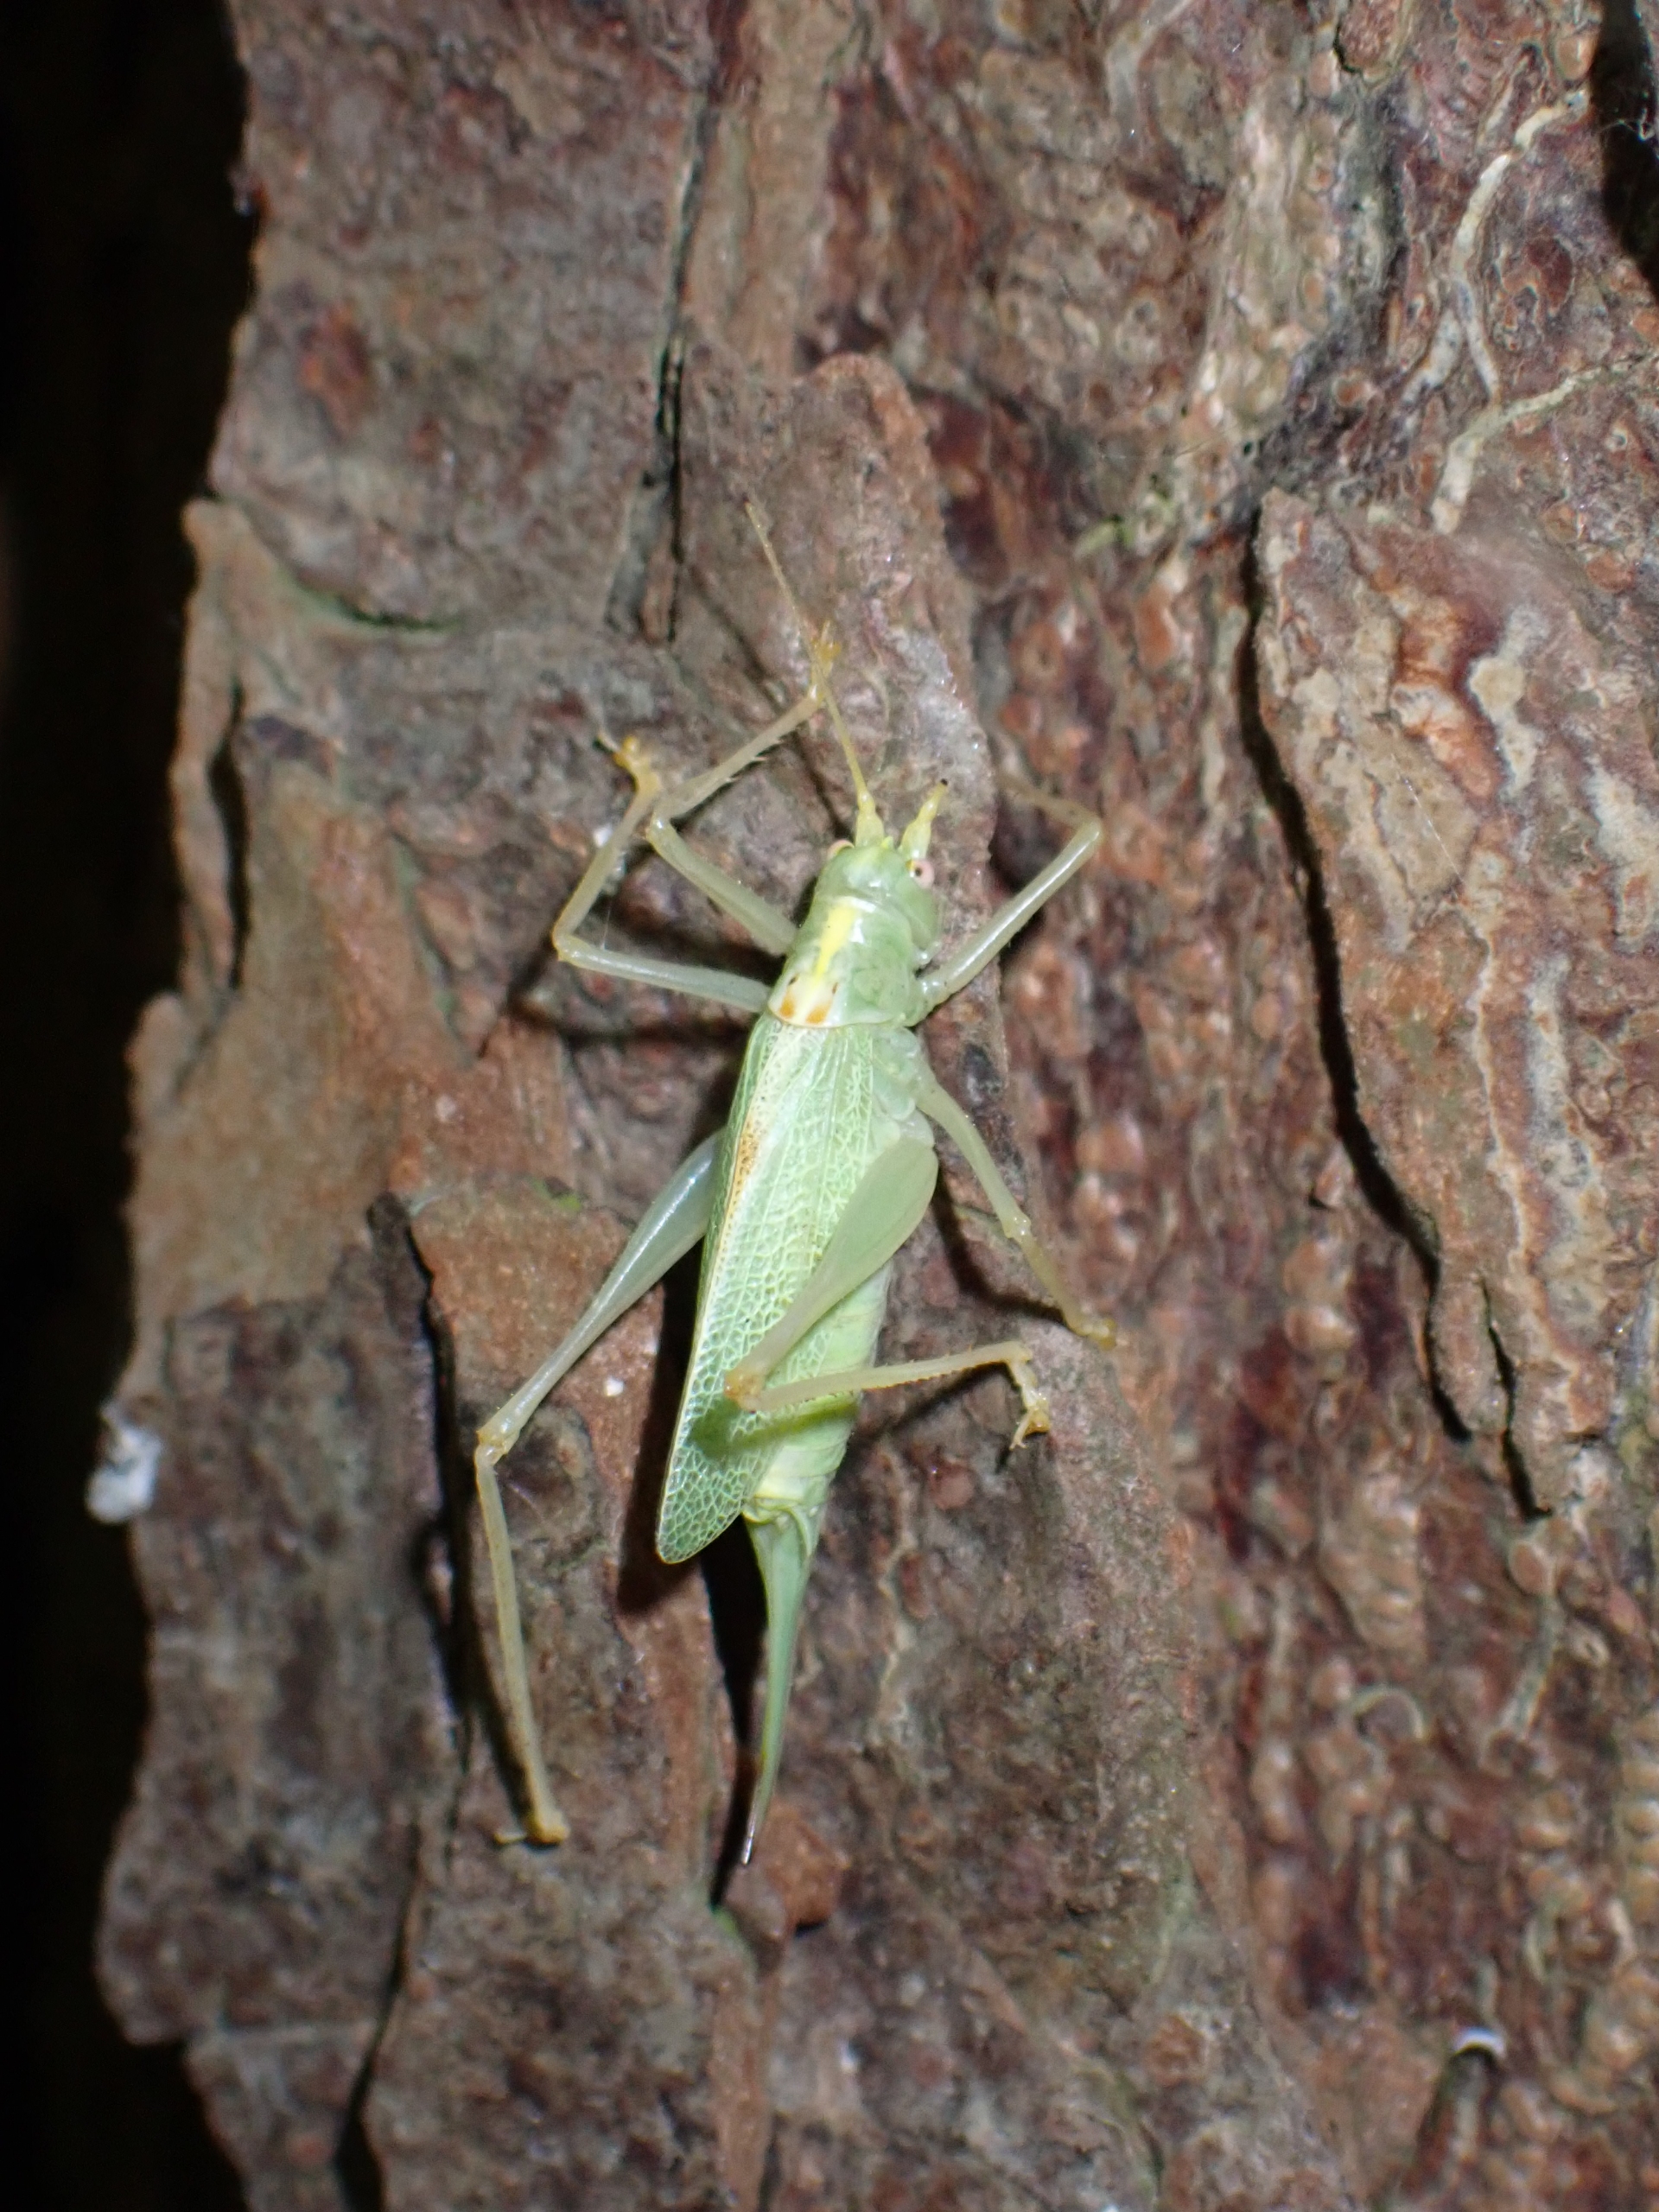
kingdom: Animalia
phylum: Arthropoda
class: Insecta
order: Orthoptera
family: Tettigoniidae
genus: Meconema
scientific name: Meconema thalassinum
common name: Egegræshoppe
